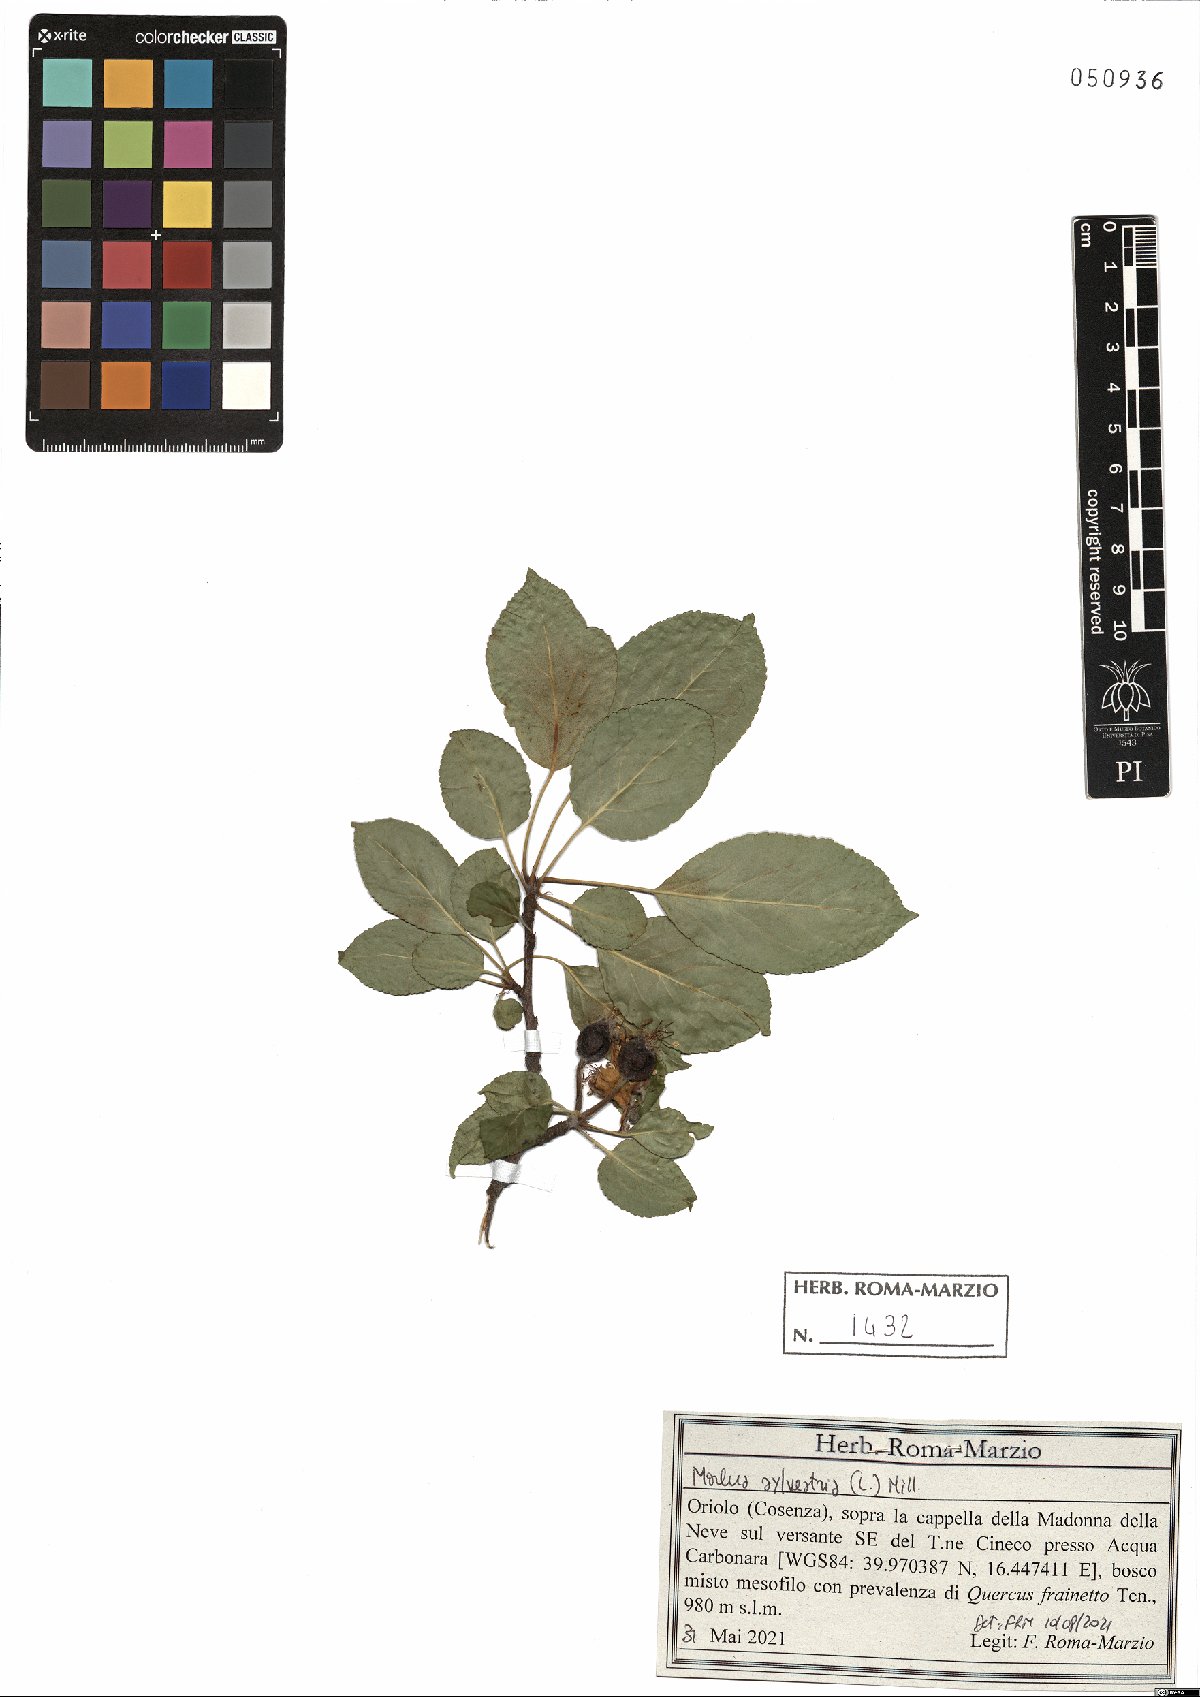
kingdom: Plantae
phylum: Tracheophyta
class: Magnoliopsida
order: Rosales
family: Rosaceae
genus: Malus
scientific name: Malus sylvestris
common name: Crab apple
